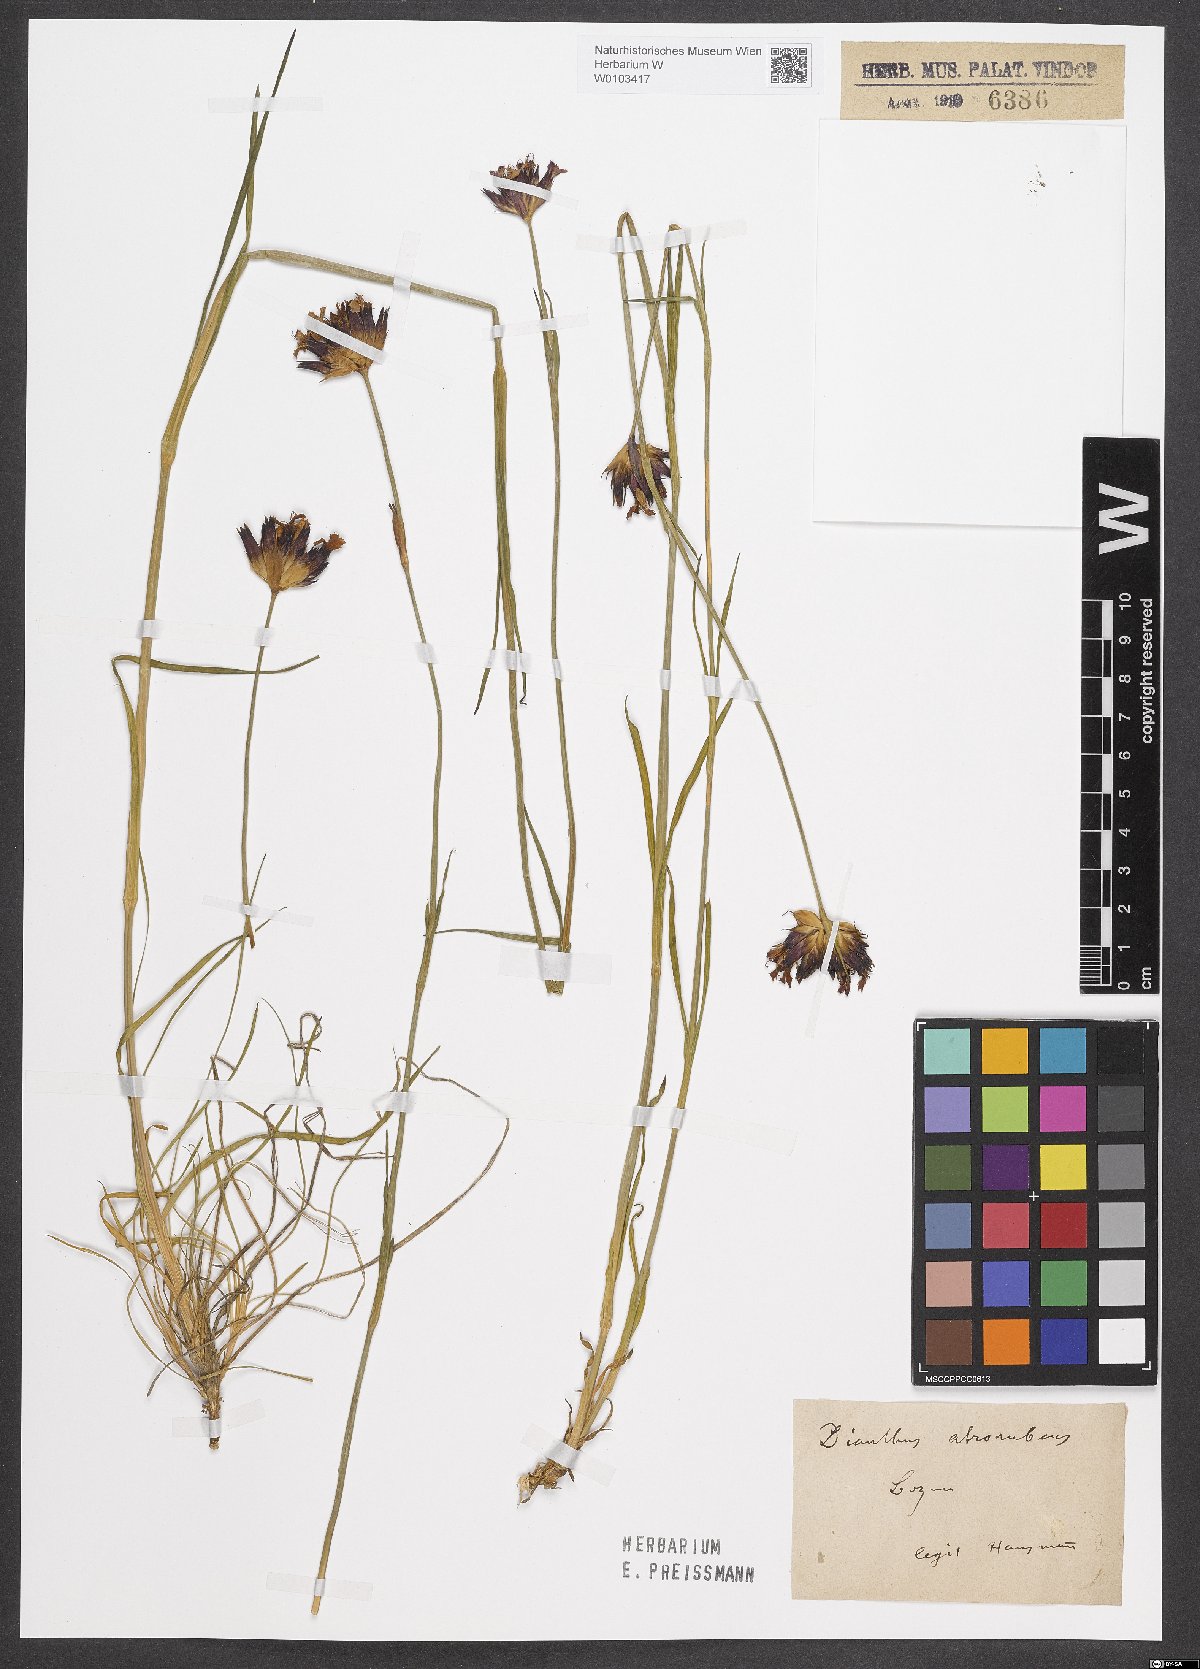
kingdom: Plantae
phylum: Tracheophyta
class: Magnoliopsida
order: Caryophyllales
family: Caryophyllaceae
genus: Dianthus
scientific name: Dianthus carthusianorum
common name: Carthusian pink
